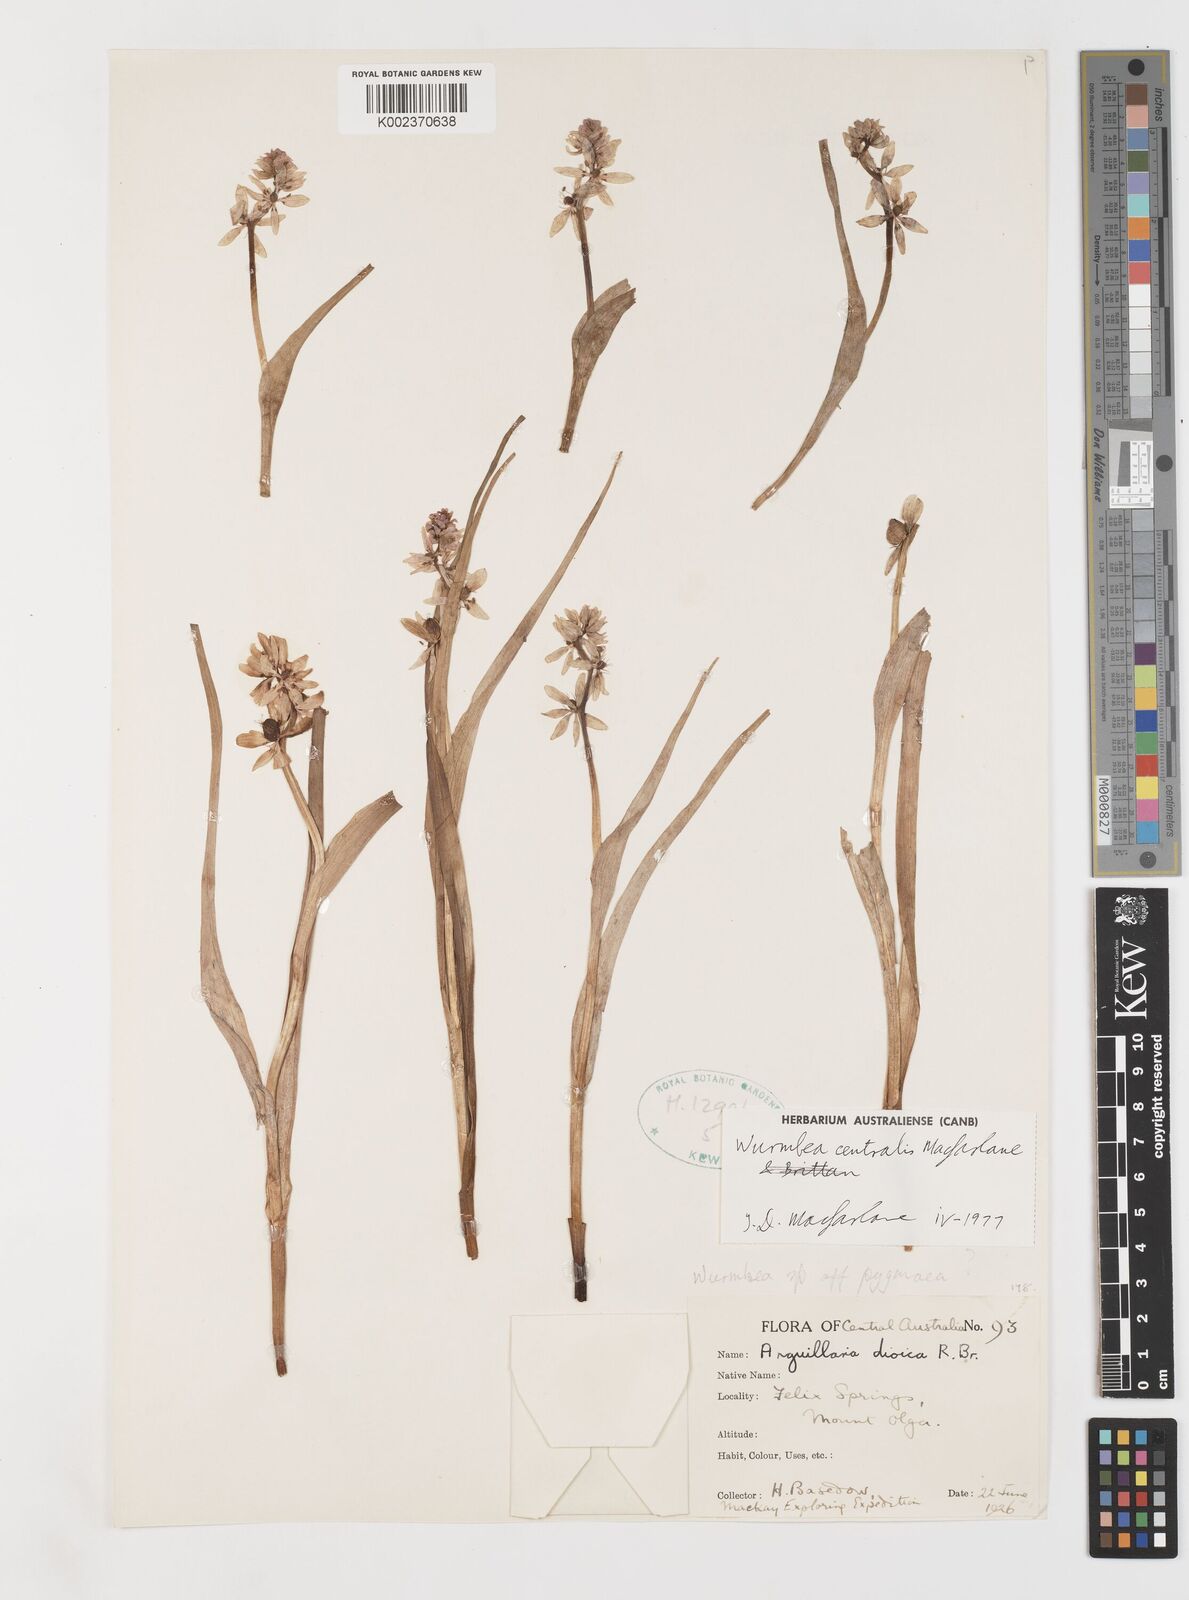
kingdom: Plantae
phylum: Tracheophyta
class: Liliopsida
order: Liliales
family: Colchicaceae
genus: Wurmbea
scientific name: Wurmbea centralis
